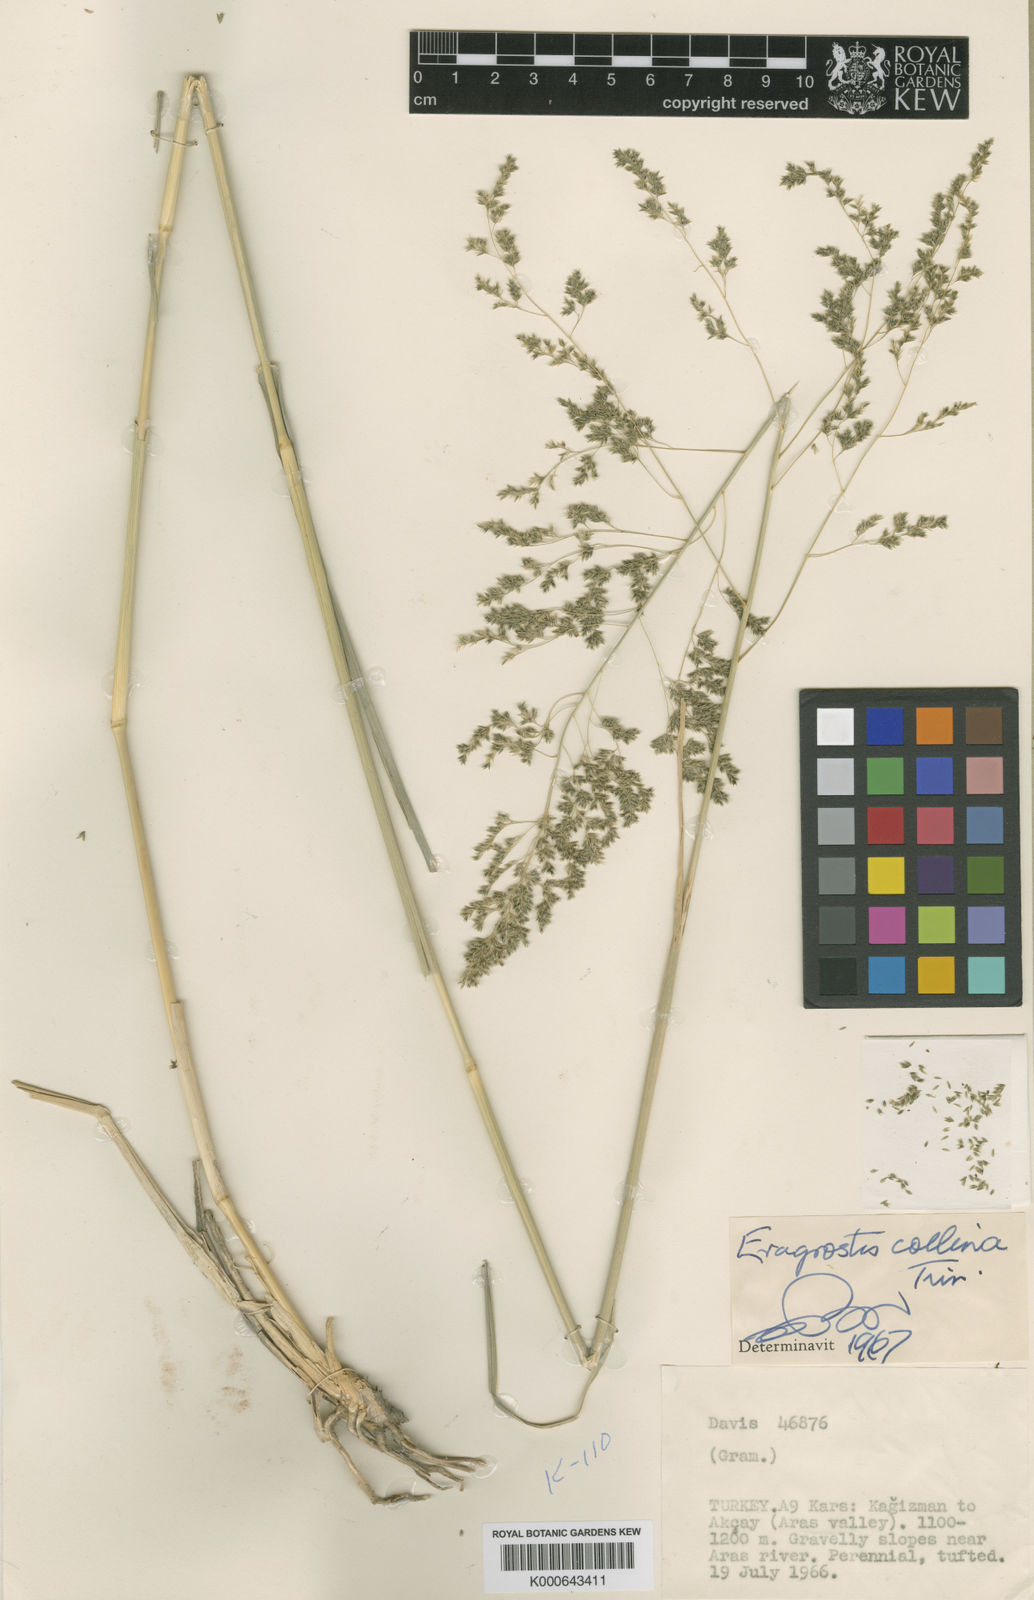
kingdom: Plantae
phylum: Tracheophyta
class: Liliopsida
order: Poales
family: Poaceae
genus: Eragrostis
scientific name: Eragrostis collina
